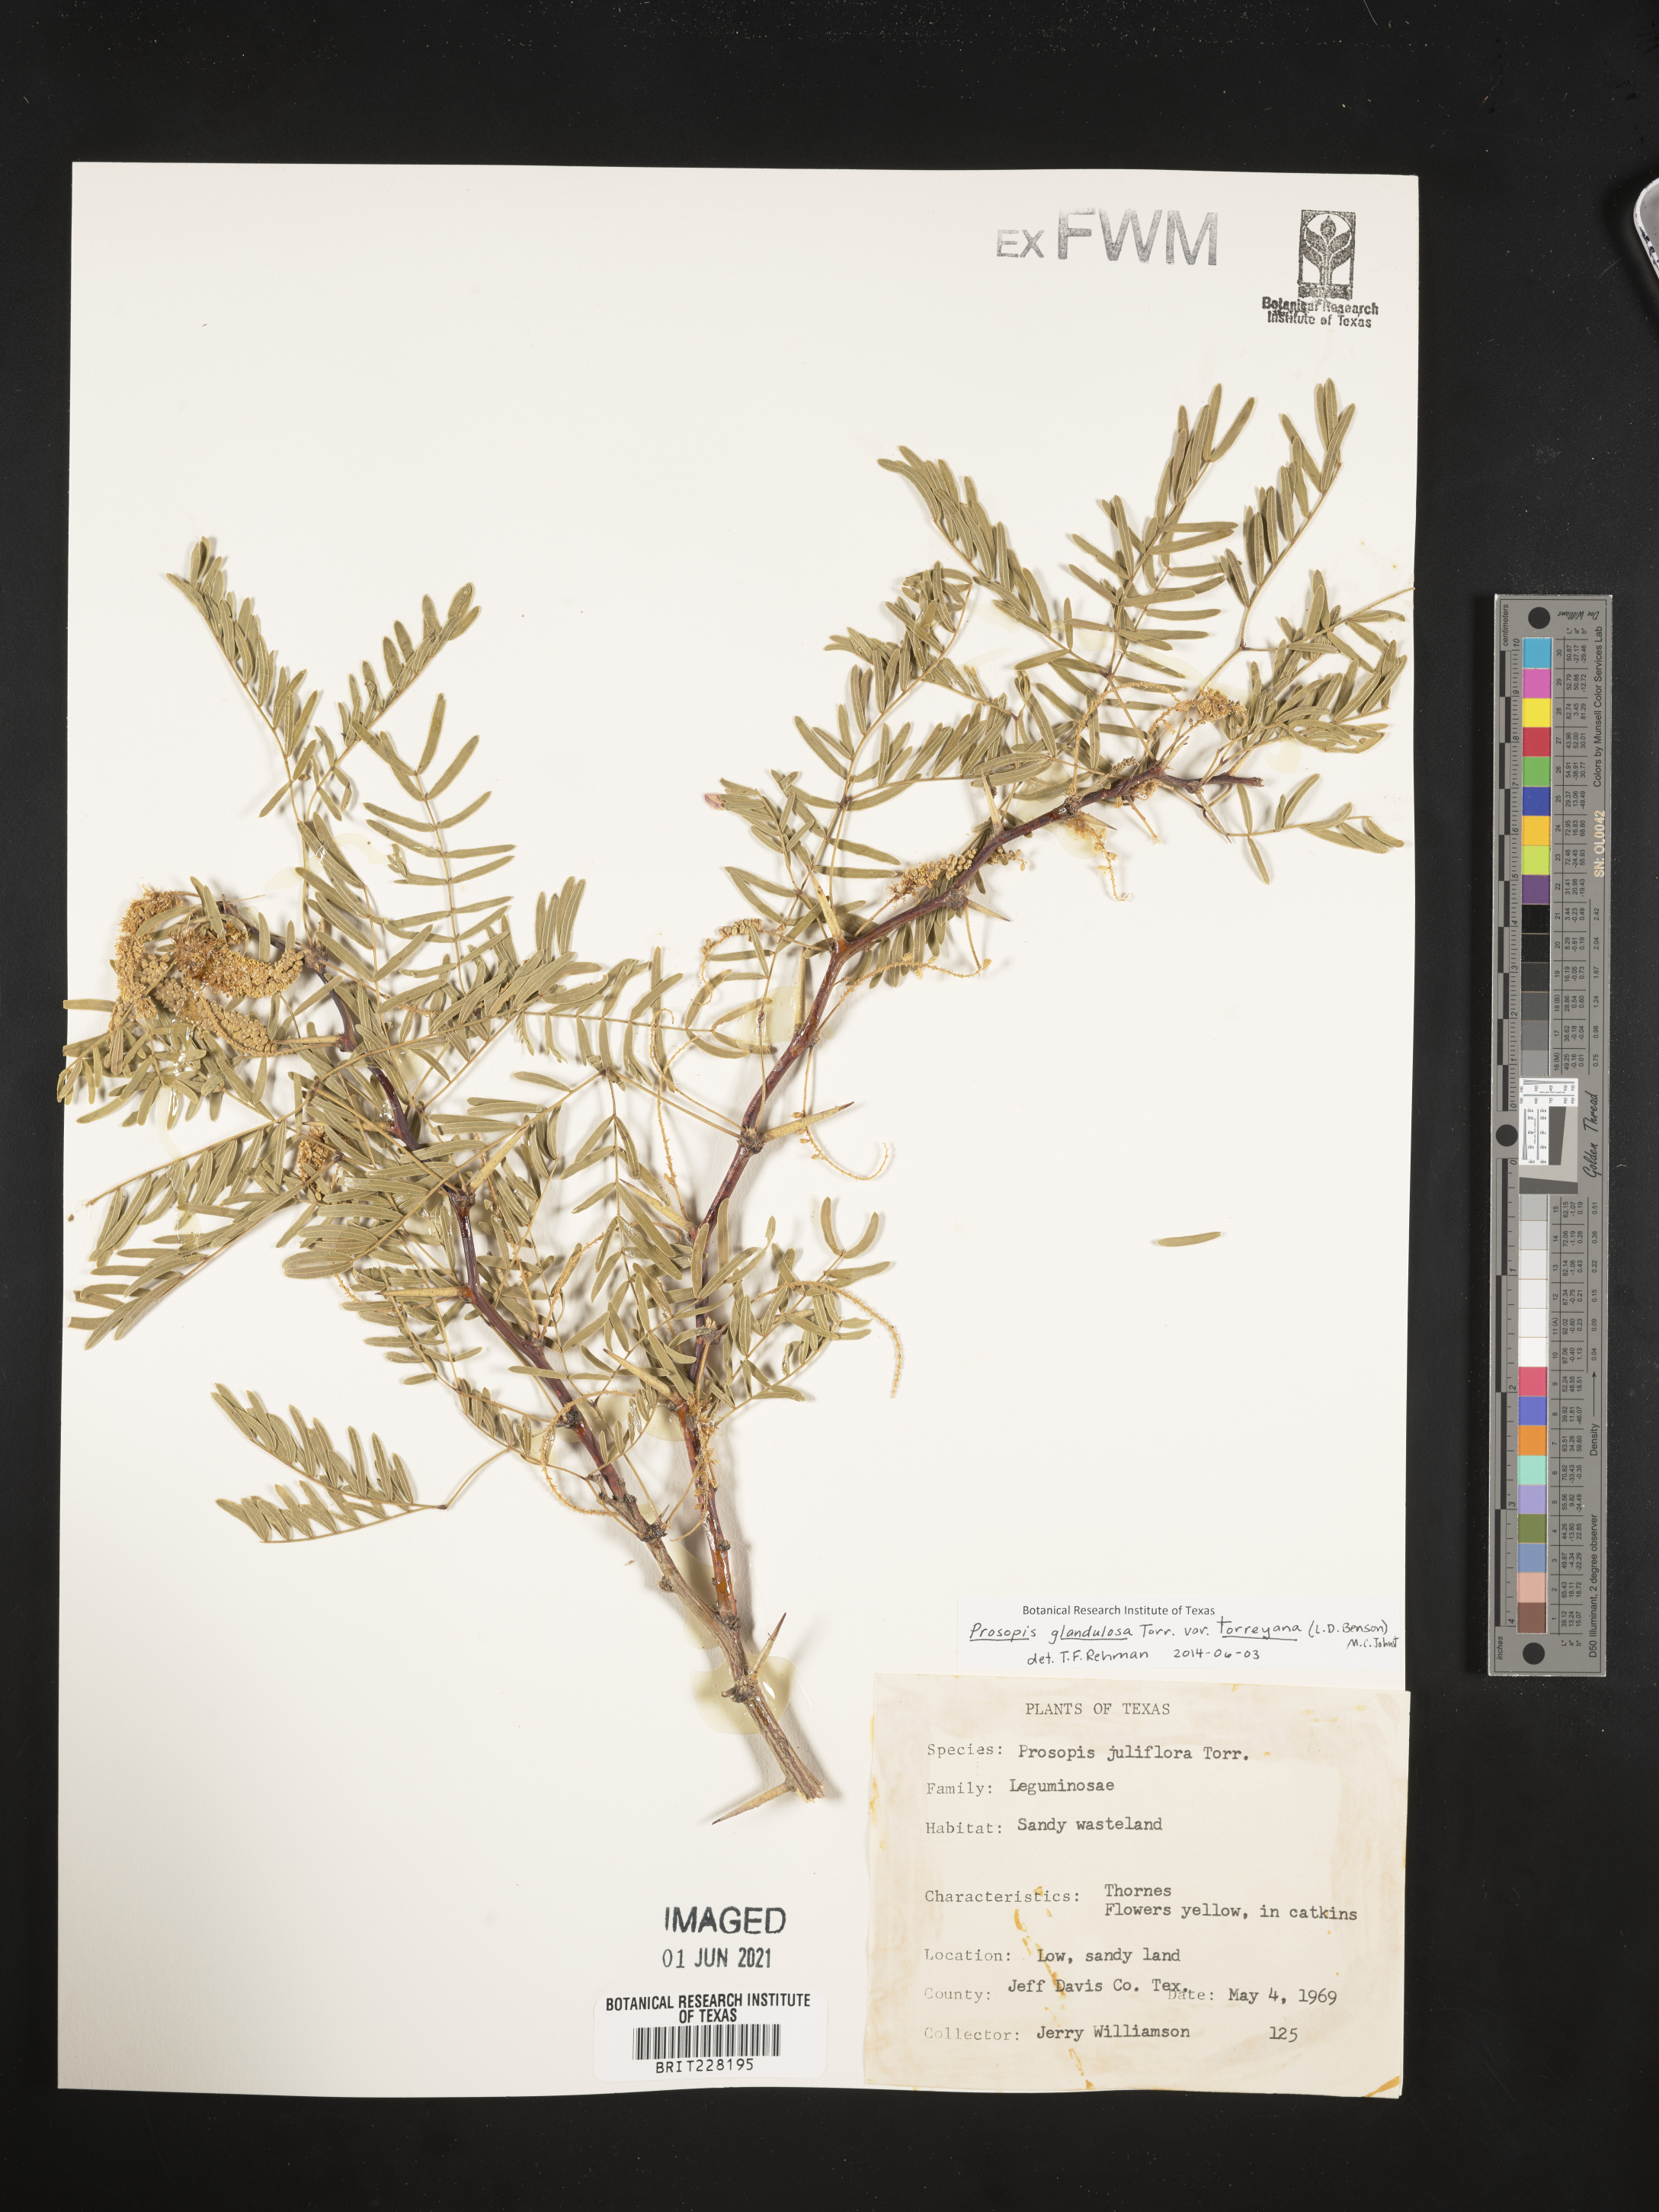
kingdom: Plantae
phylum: Tracheophyta
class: Magnoliopsida
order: Fabales
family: Fabaceae
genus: Prosopis
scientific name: Prosopis glandulosa
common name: Honey mesquite
